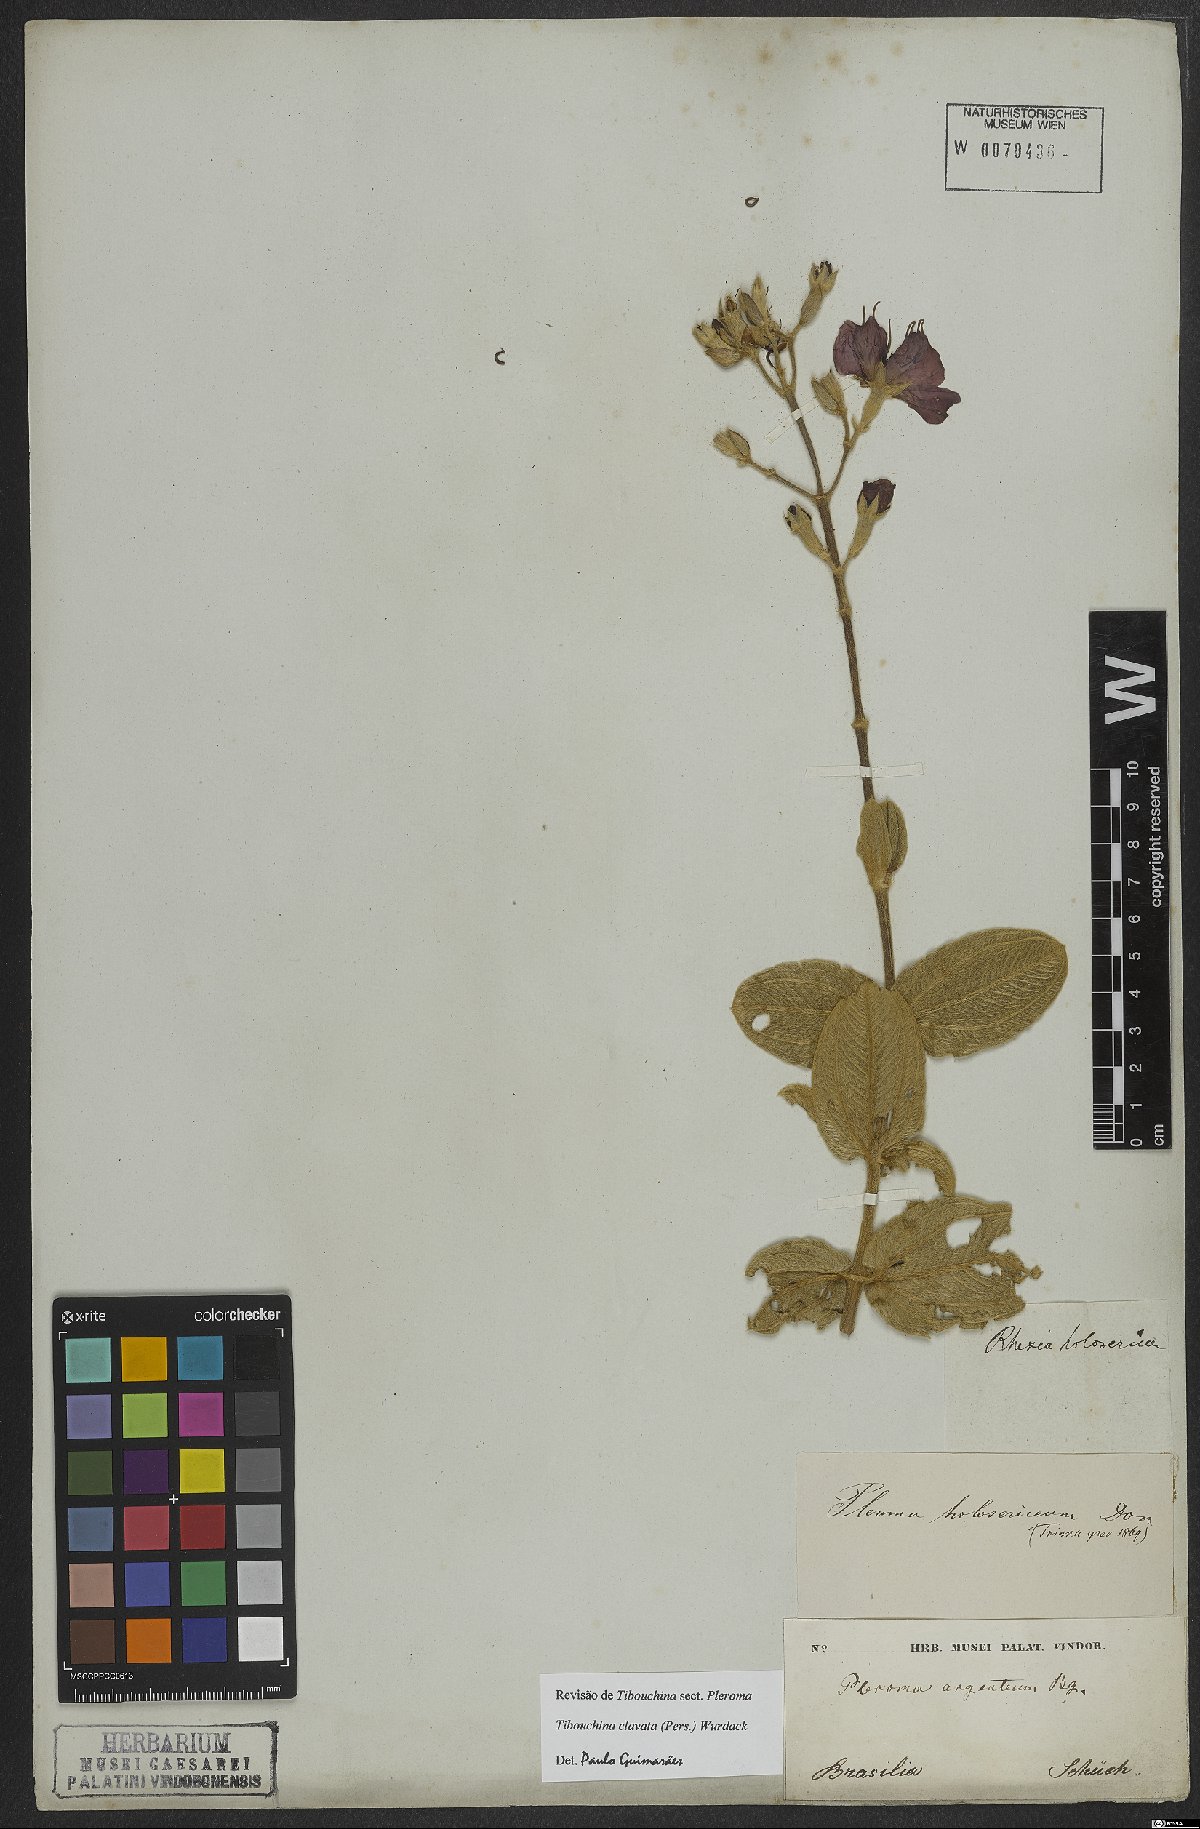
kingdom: Plantae
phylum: Tracheophyta
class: Magnoliopsida
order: Myrtales
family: Melastomataceae
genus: Pleroma
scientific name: Pleroma clavatum
